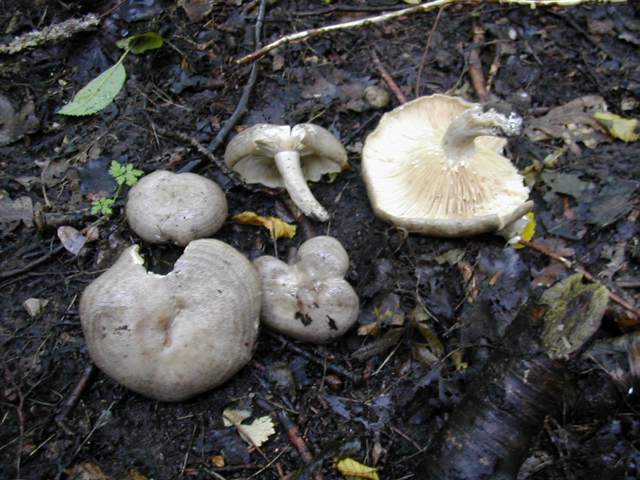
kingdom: Fungi
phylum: Basidiomycota
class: Agaricomycetes
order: Russulales
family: Russulaceae
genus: Lactarius
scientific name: Lactarius circellatus
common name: avnbøg-mælkehat
